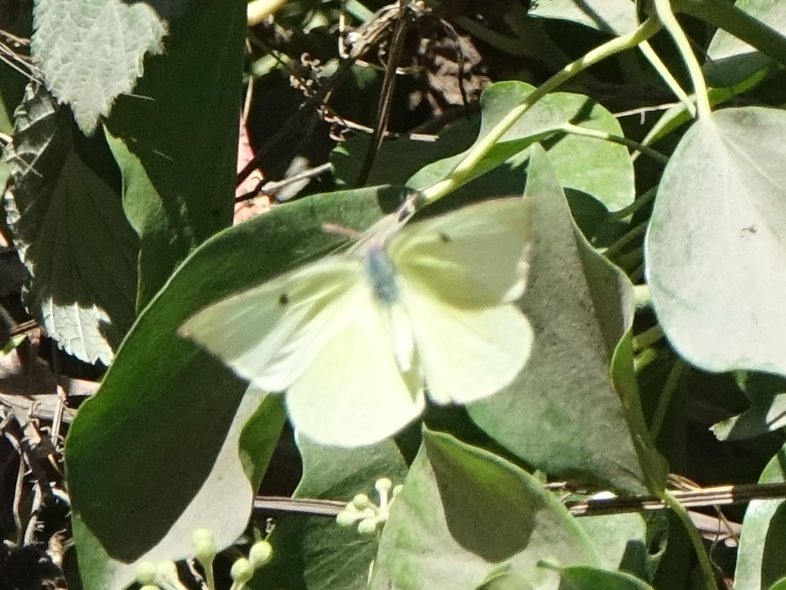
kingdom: Animalia
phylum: Arthropoda
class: Insecta
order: Lepidoptera
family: Pieridae
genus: Zerene
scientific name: Zerene eurydice
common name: California Dogface
